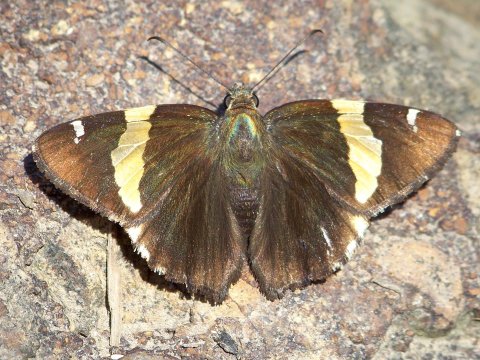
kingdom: Animalia
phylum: Arthropoda
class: Insecta
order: Lepidoptera
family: Hesperiidae
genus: Autochton
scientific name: Autochton cellus
